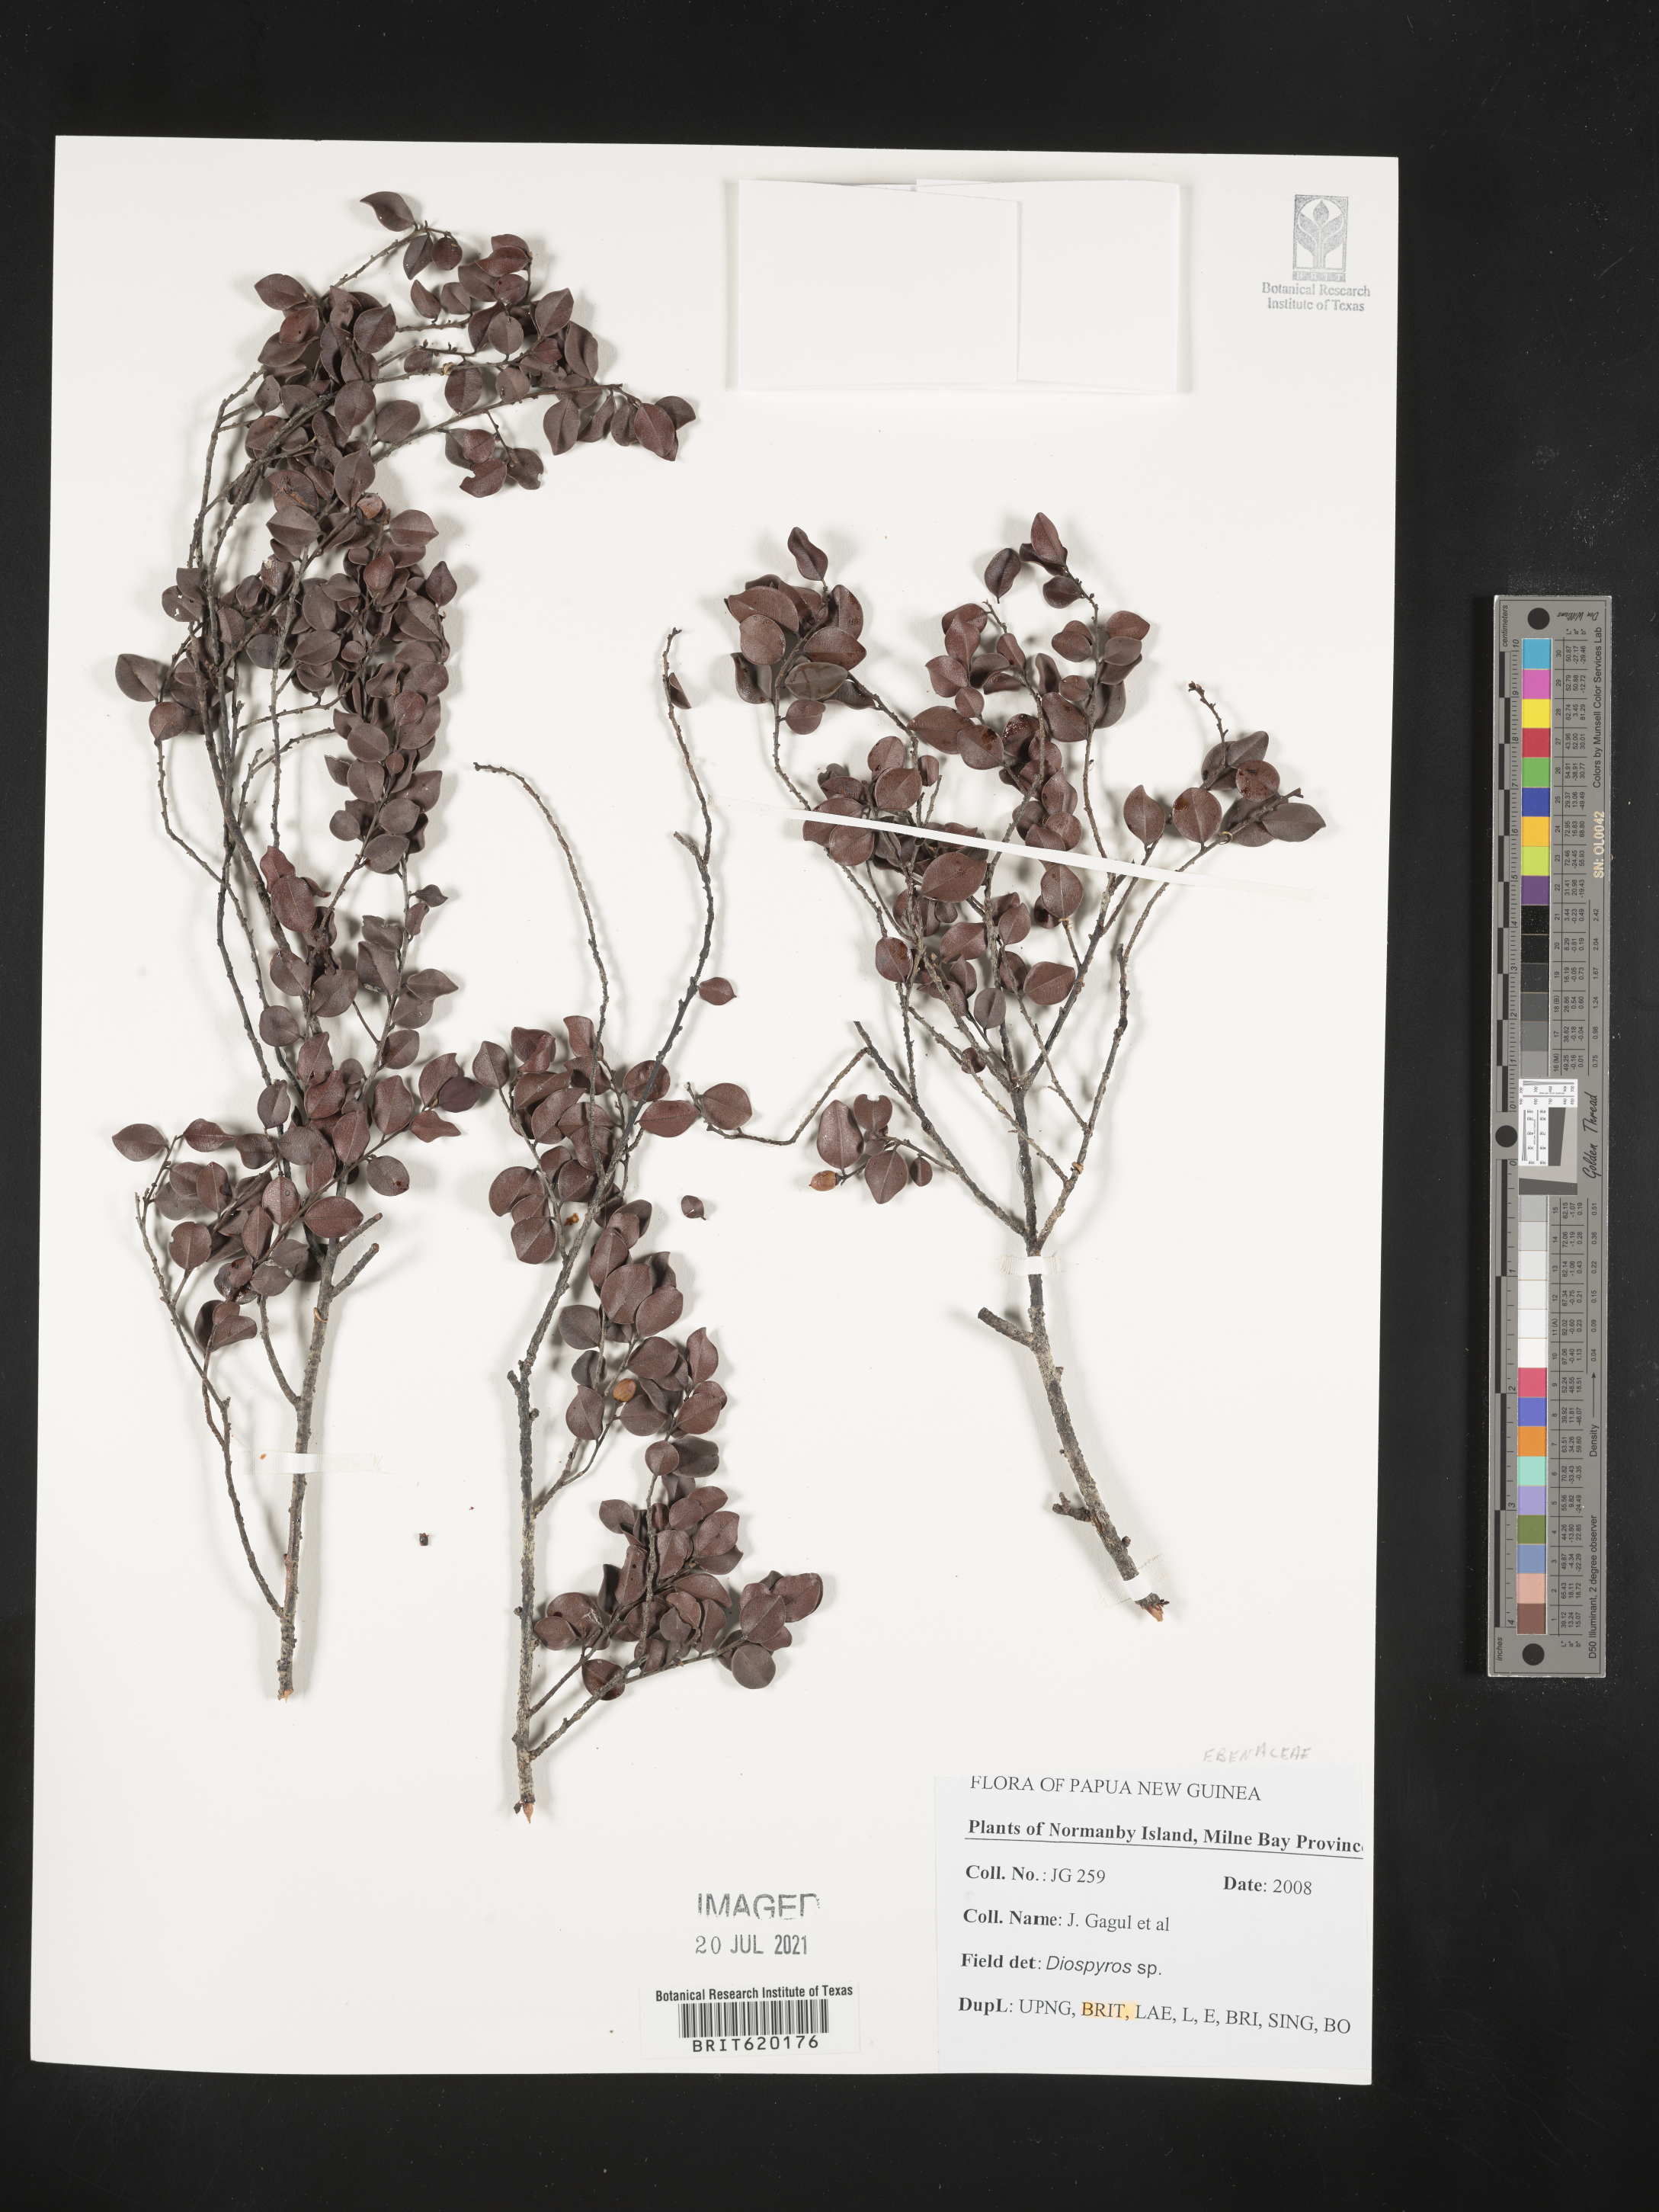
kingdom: Plantae
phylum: Tracheophyta
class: Magnoliopsida
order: Ericales
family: Ebenaceae
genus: Diospyros
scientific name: Diospyros
